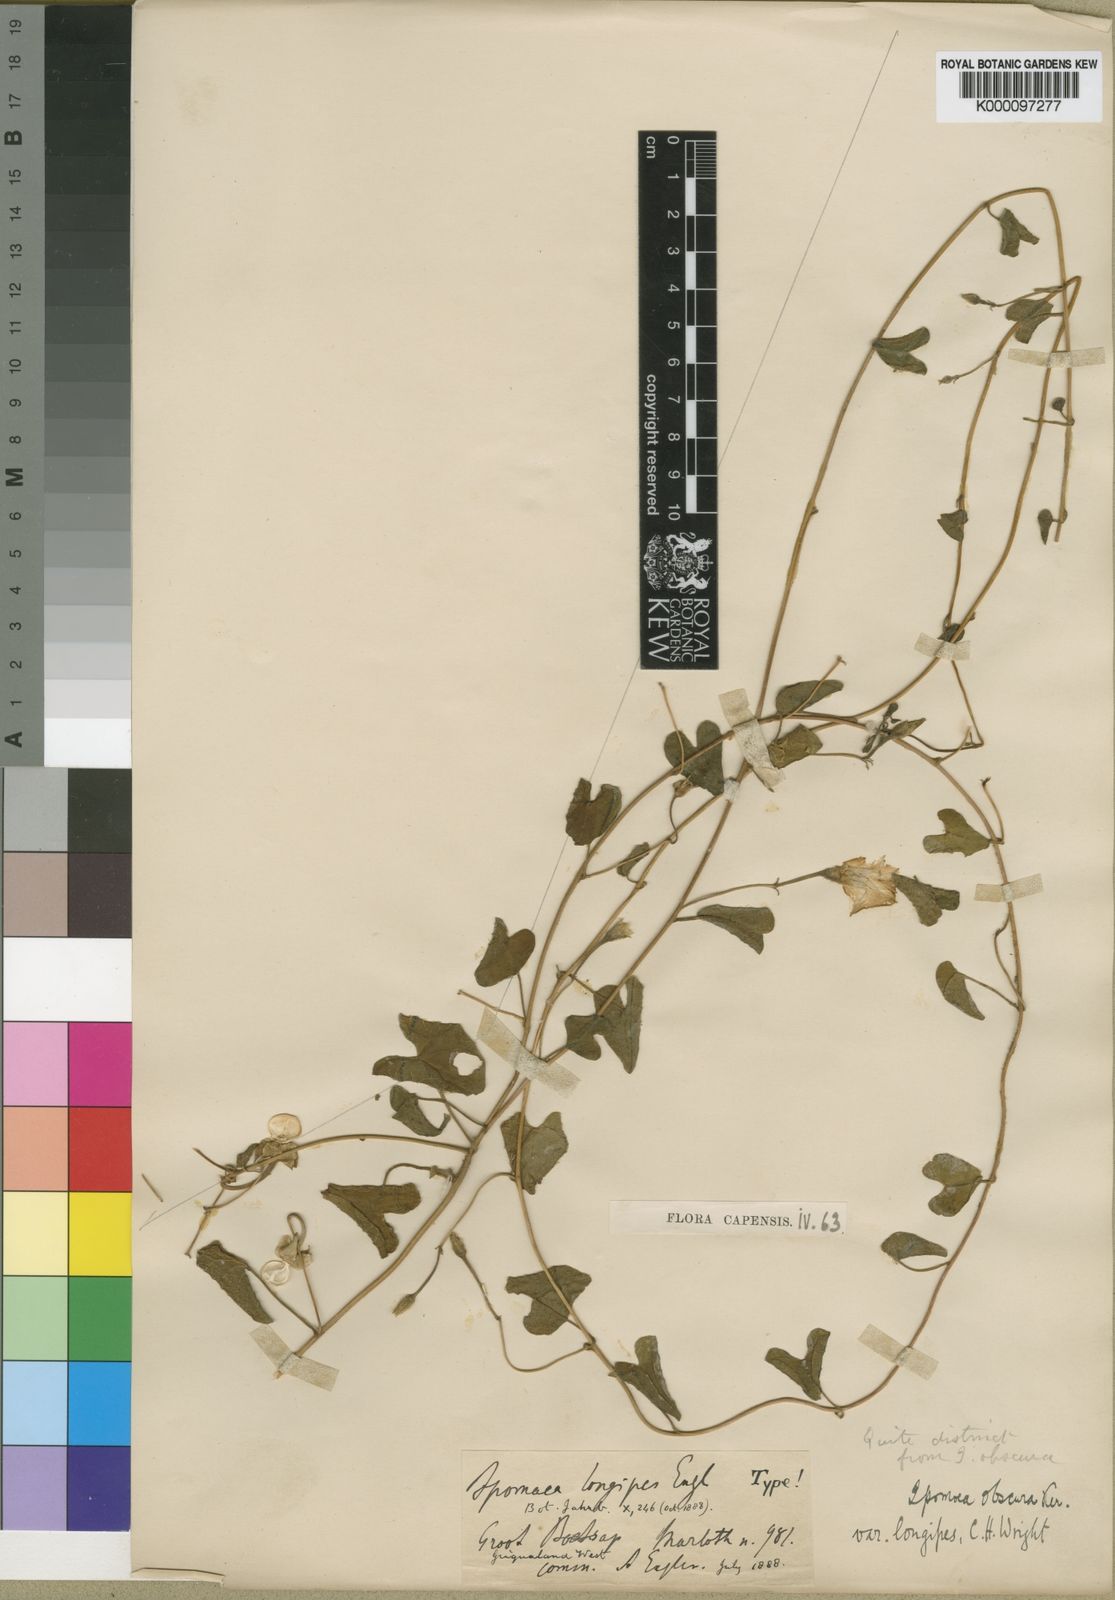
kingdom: Plantae
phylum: Tracheophyta
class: Magnoliopsida
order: Solanales
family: Convolvulaceae
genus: Ipomoea
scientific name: Ipomoea obscura
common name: Obscure morning-glory
